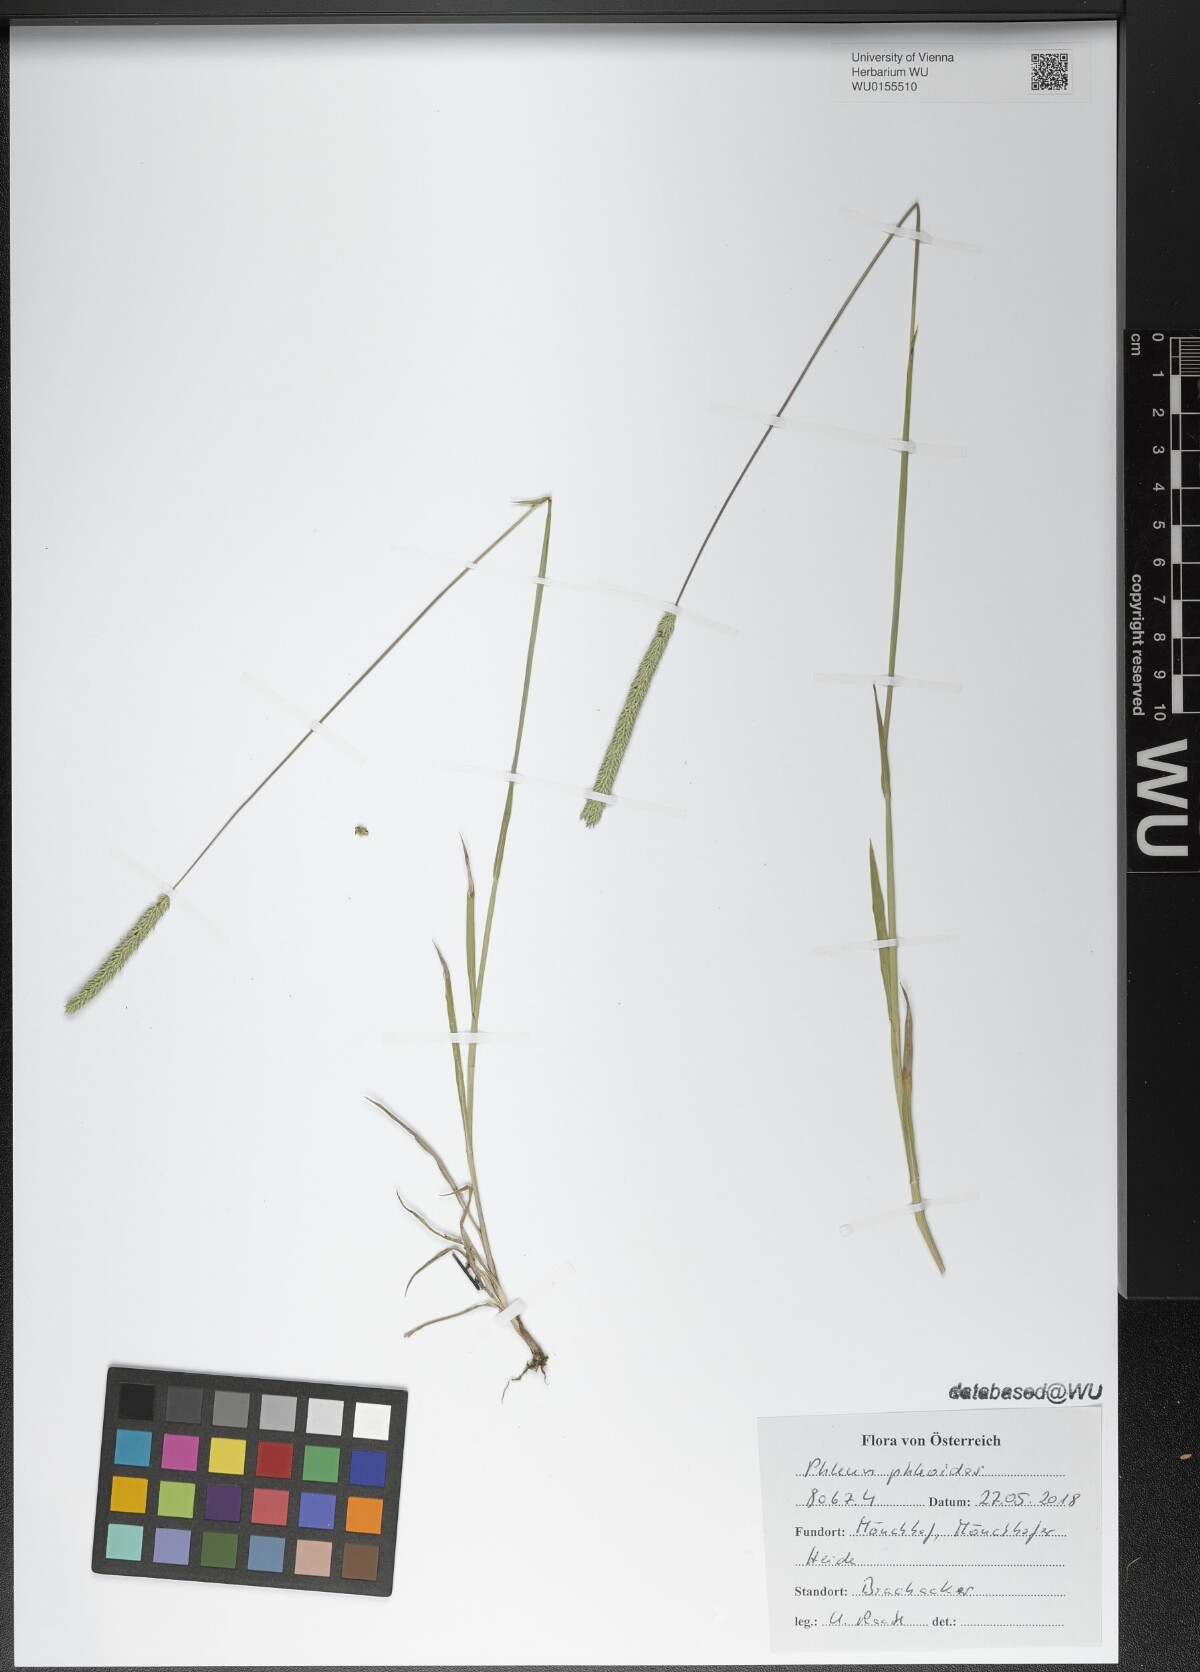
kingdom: Plantae
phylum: Tracheophyta
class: Liliopsida
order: Poales
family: Poaceae
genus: Phleum
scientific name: Phleum phleoides
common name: Purple-stem cat's-tail
